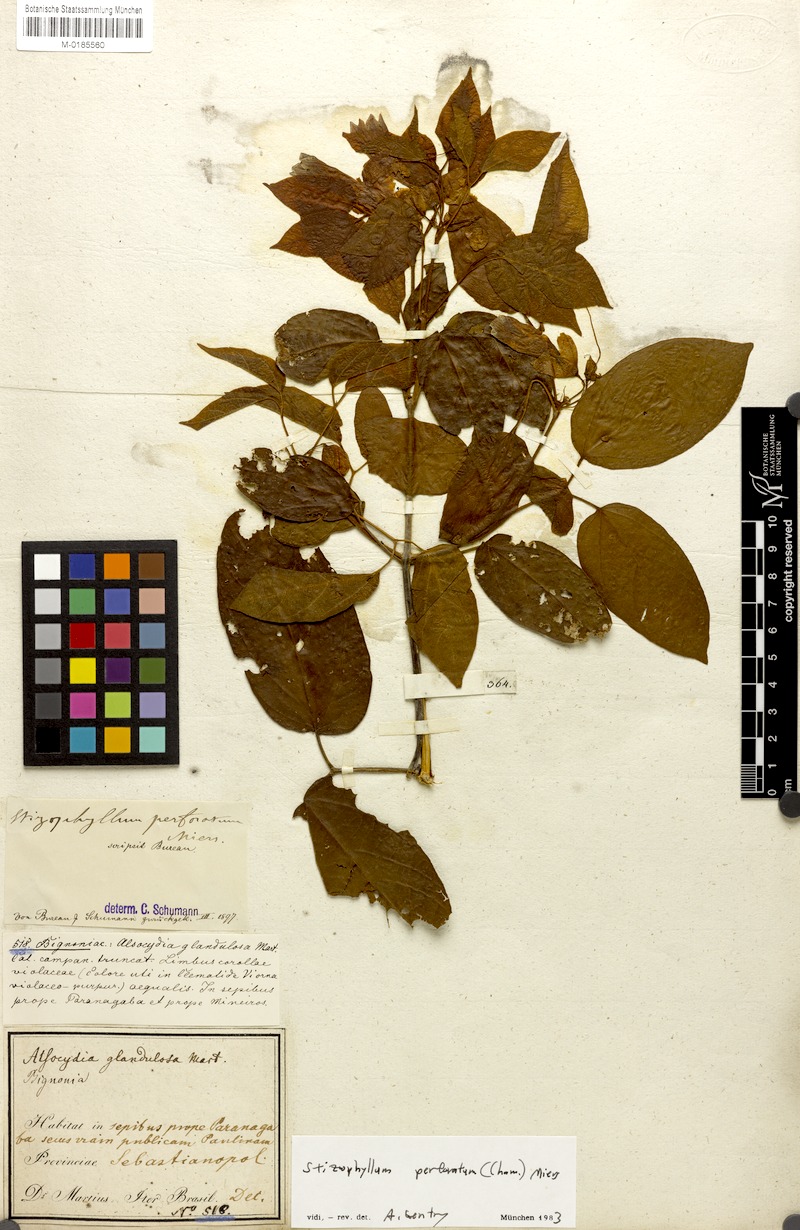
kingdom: Plantae
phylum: Tracheophyta
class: Magnoliopsida
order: Lamiales
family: Bignoniaceae
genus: Stizophyllum
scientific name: Stizophyllum perforatum
